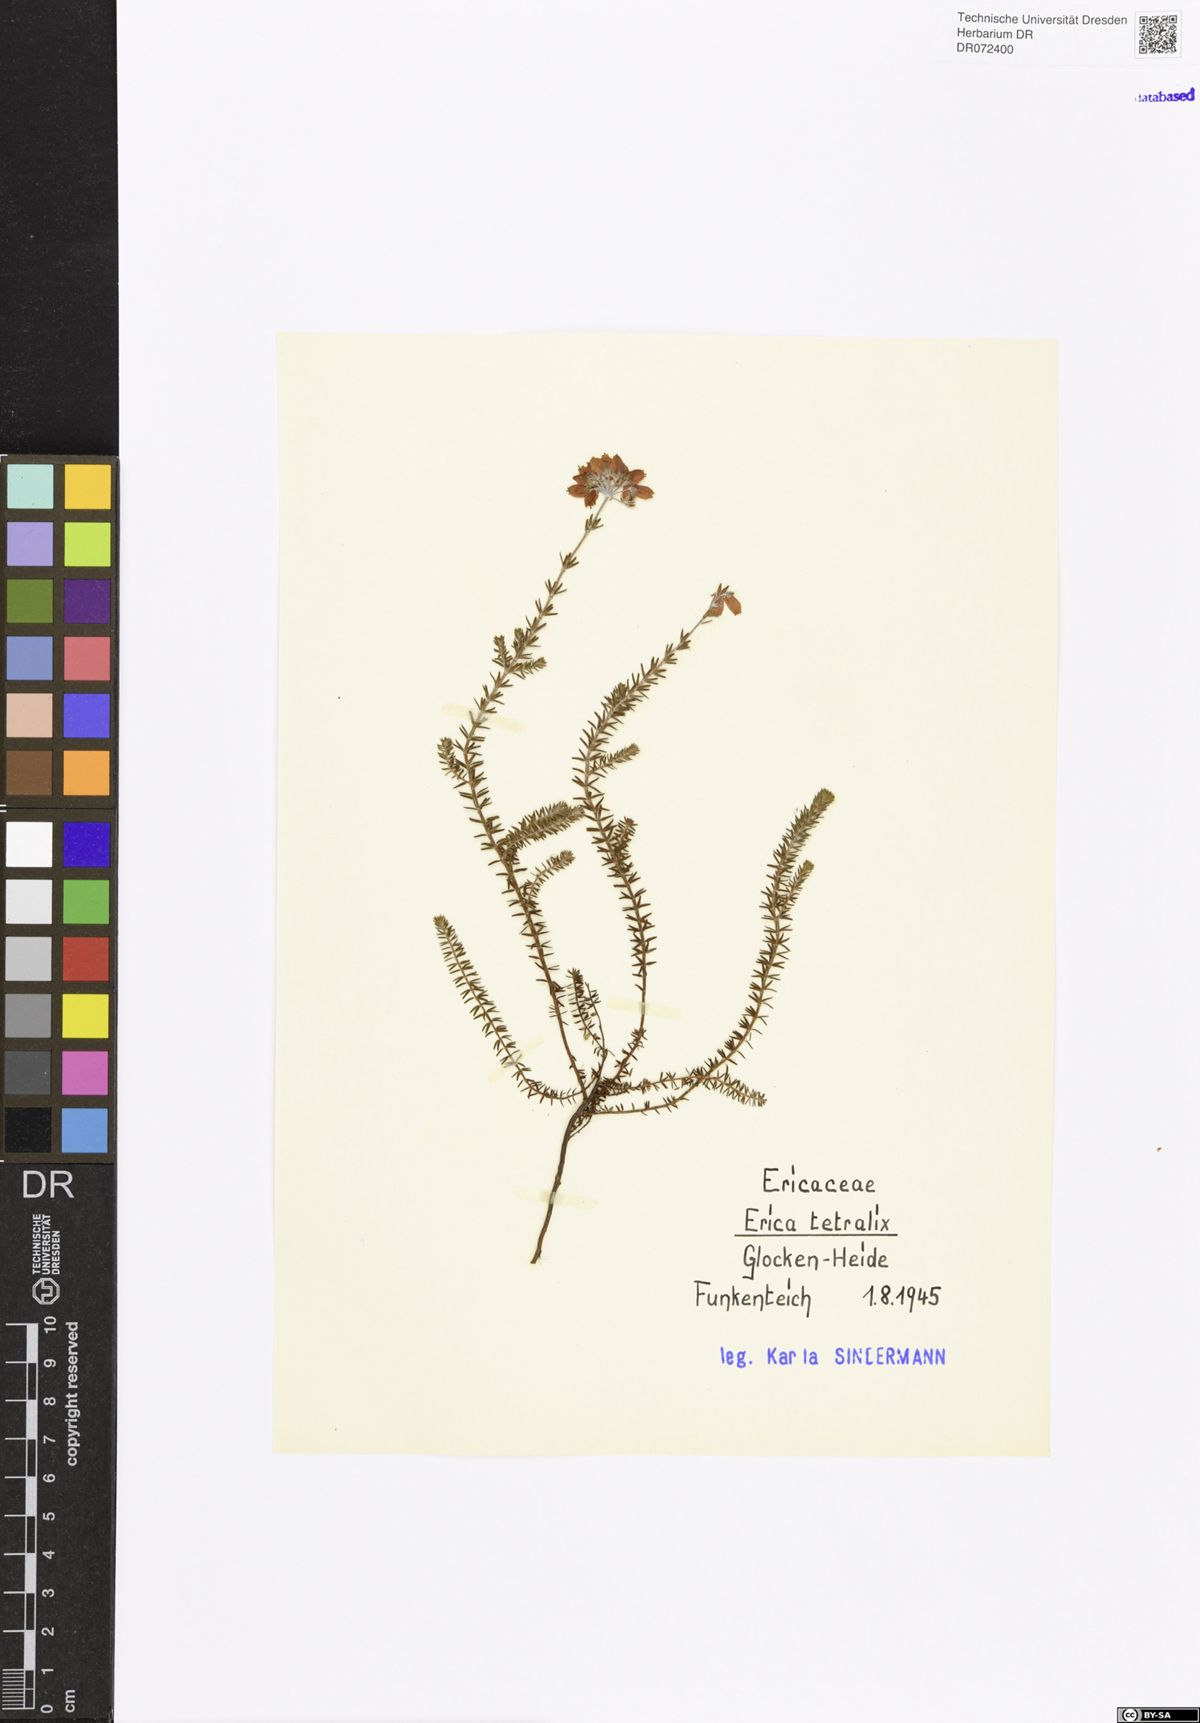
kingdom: Plantae
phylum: Tracheophyta
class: Magnoliopsida
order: Ericales
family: Ericaceae
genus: Erica
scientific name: Erica tetralix
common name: Cross-leaved heath
